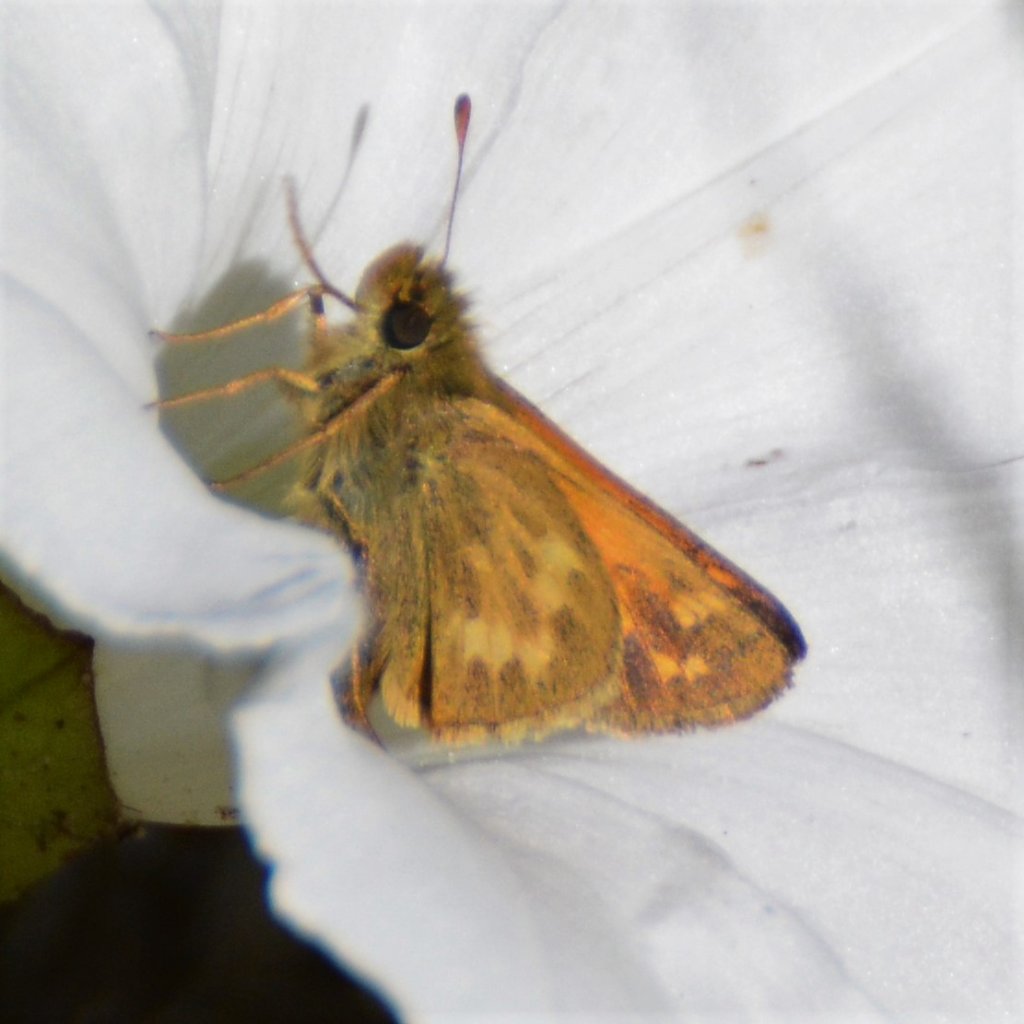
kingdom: Animalia
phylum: Arthropoda
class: Insecta
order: Lepidoptera
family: Hesperiidae
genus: Hesperia
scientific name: Hesperia sassacus
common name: Sassacus Skipper
